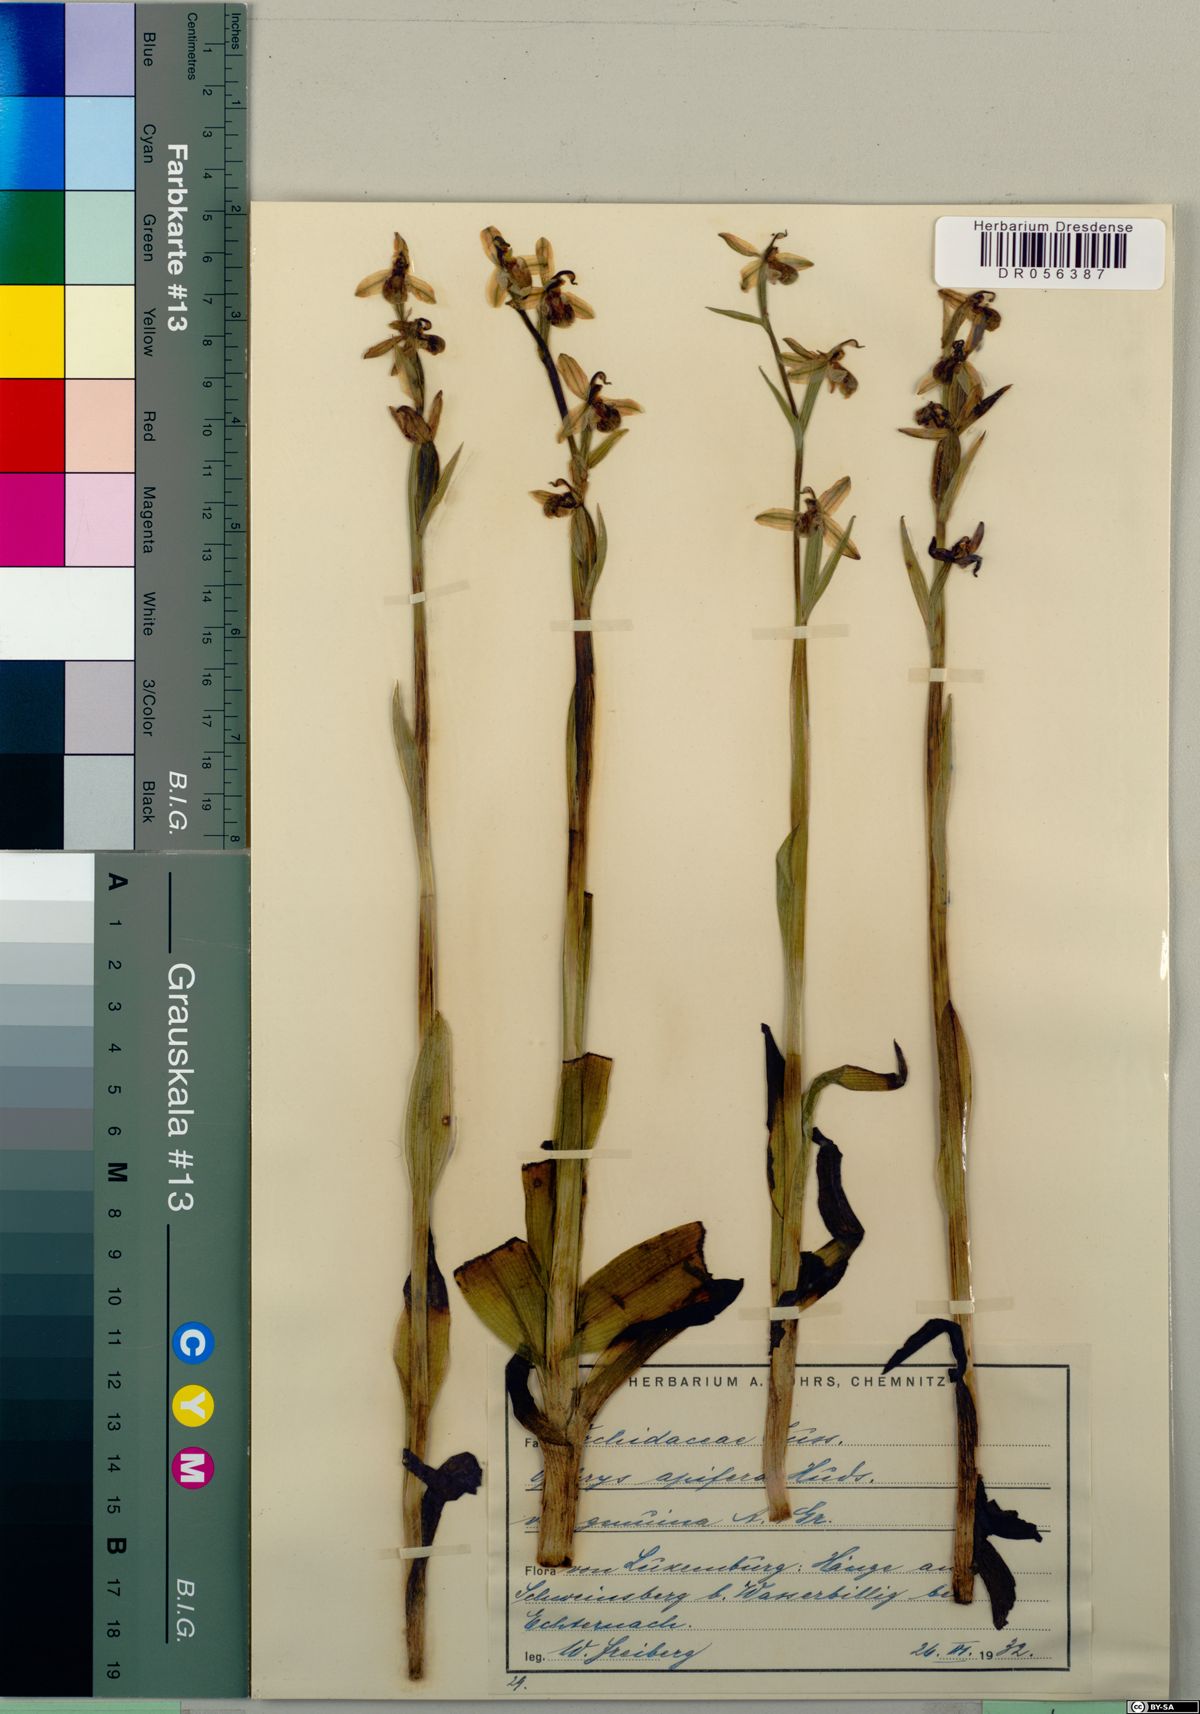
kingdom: Plantae
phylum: Tracheophyta
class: Liliopsida
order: Asparagales
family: Orchidaceae
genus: Ophrys
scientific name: Ophrys apifera
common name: Bee orchid
